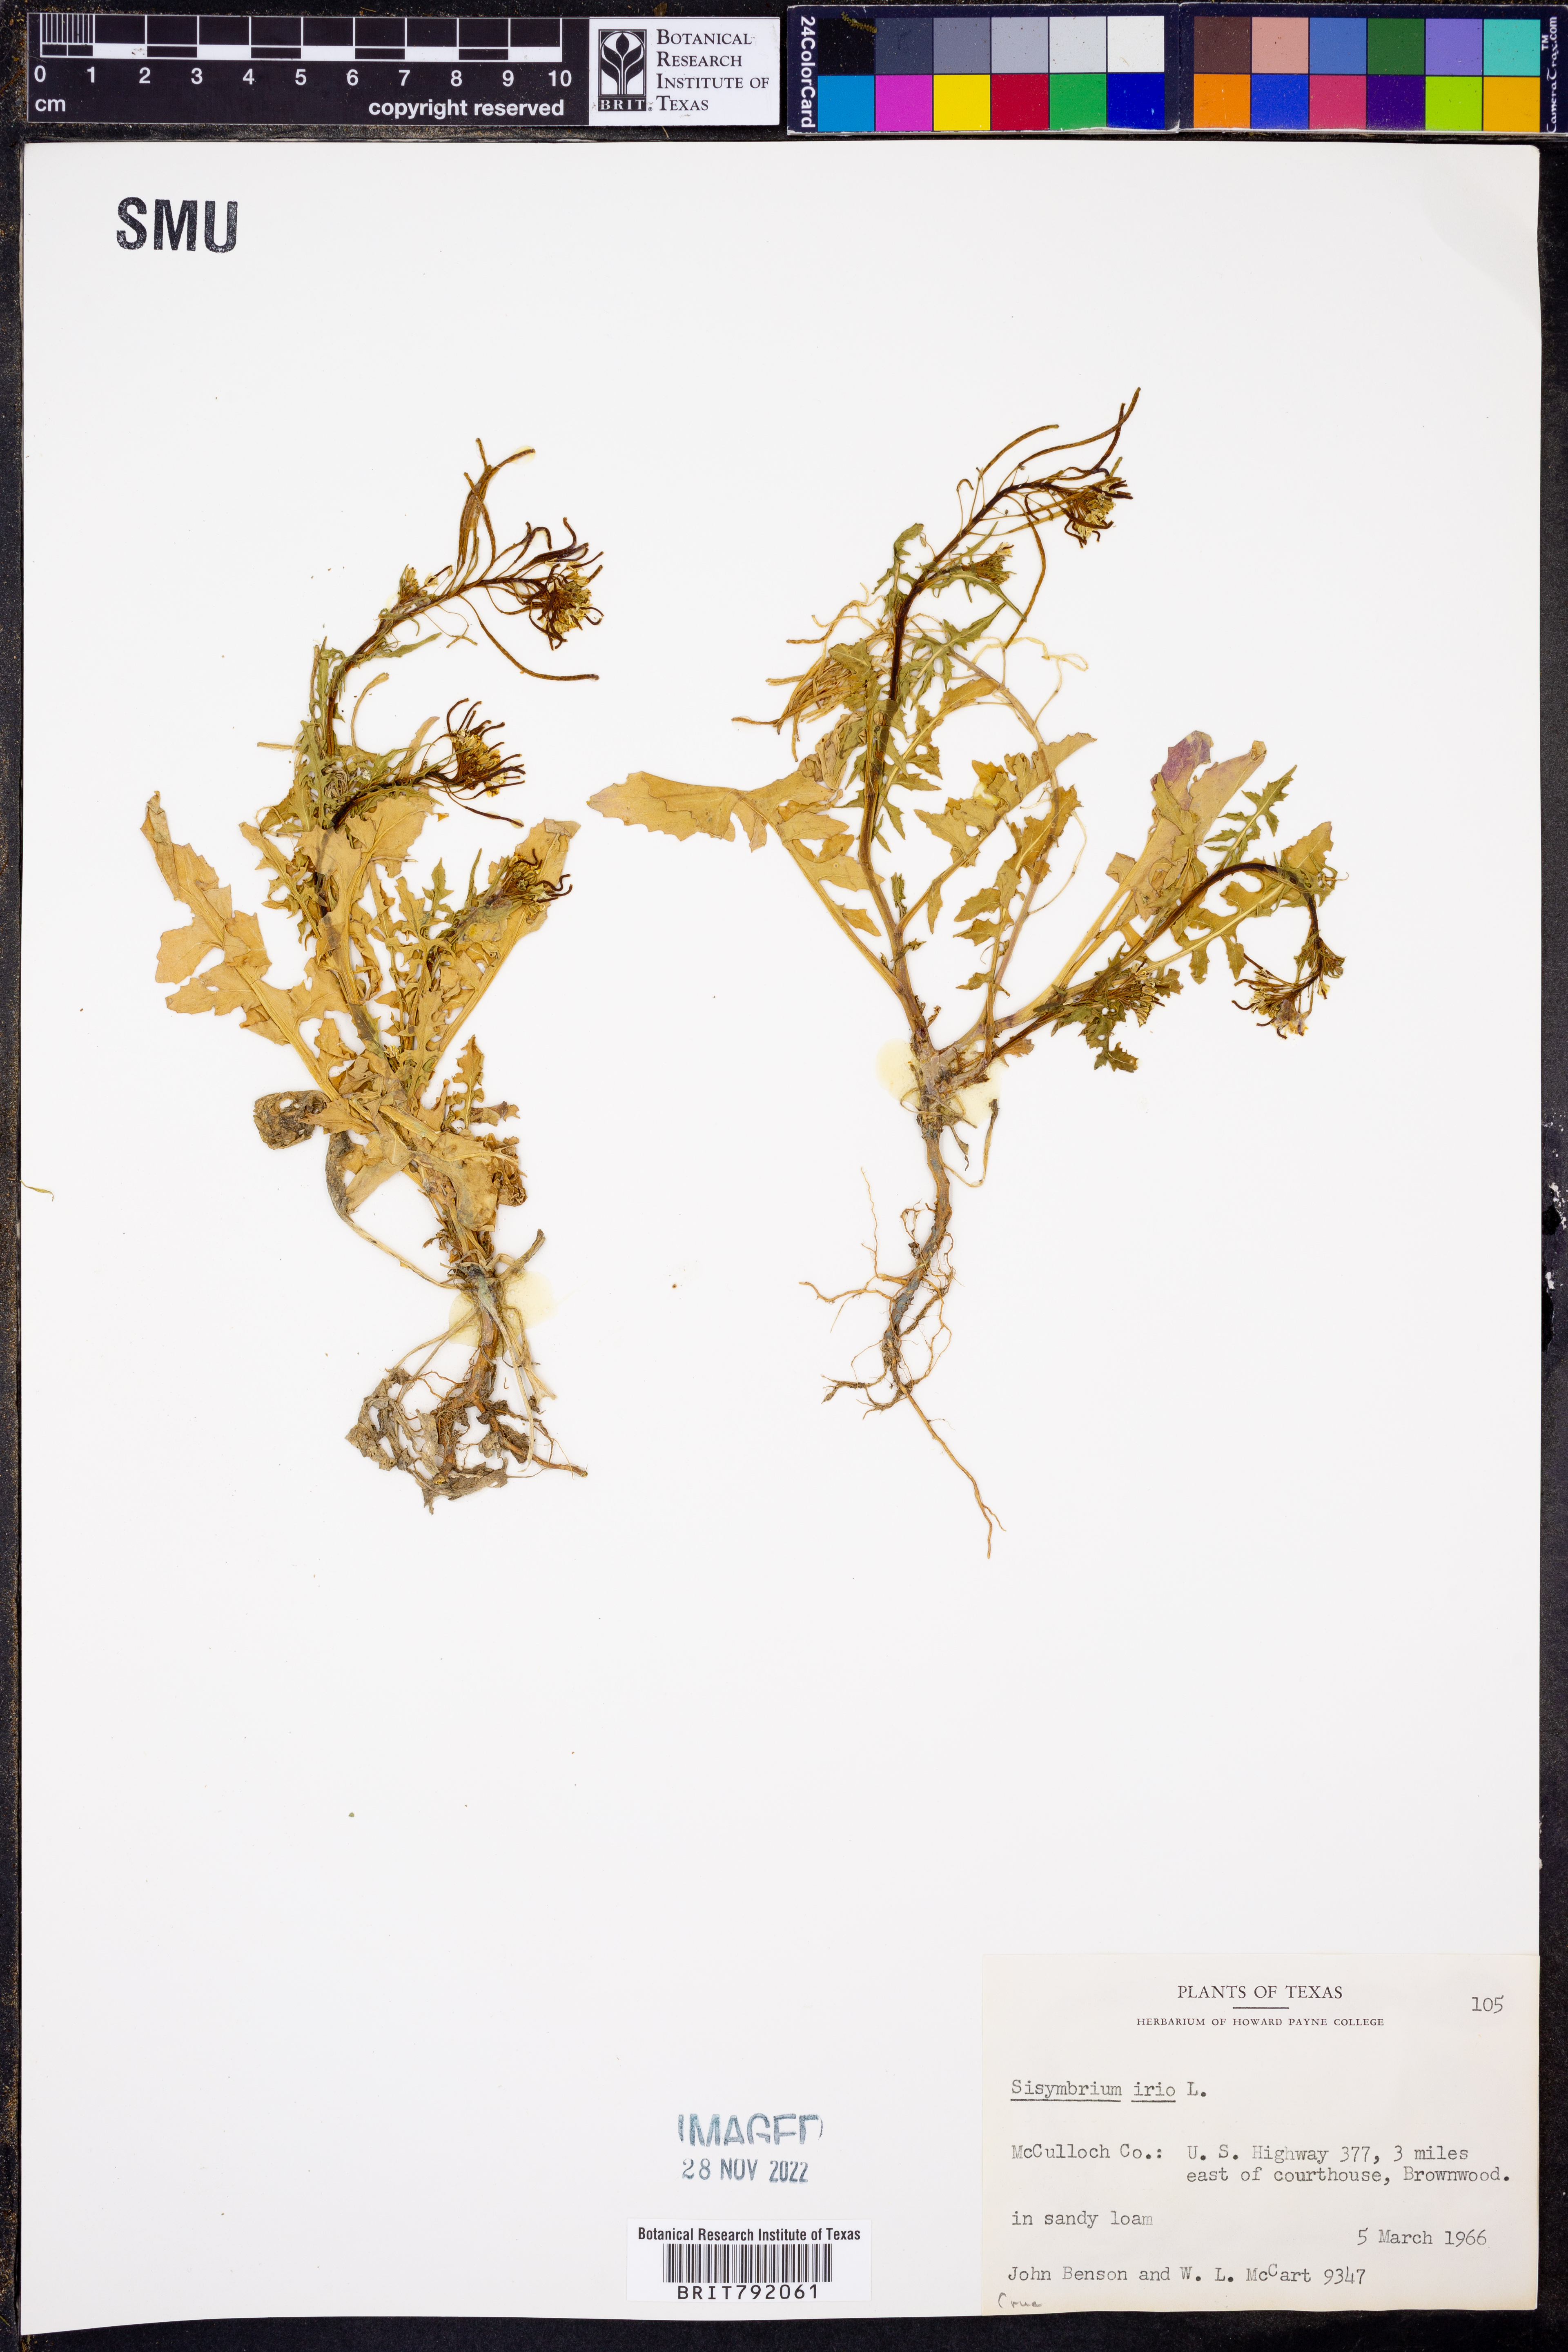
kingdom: Plantae
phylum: Tracheophyta
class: Magnoliopsida
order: Brassicales
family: Brassicaceae
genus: Sisymbrium
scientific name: Sisymbrium irio
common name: London rocket
